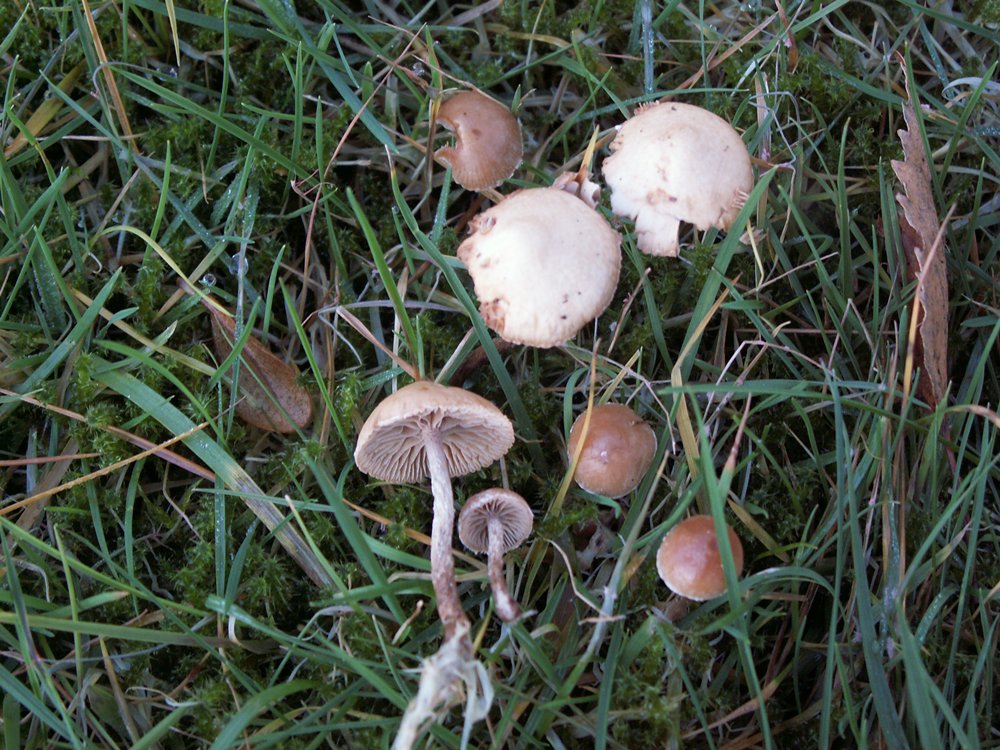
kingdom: Fungi
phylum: Basidiomycota
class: Agaricomycetes
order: Agaricales
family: Strophariaceae
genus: Deconica
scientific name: Deconica inquilina
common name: græs-stråhat
